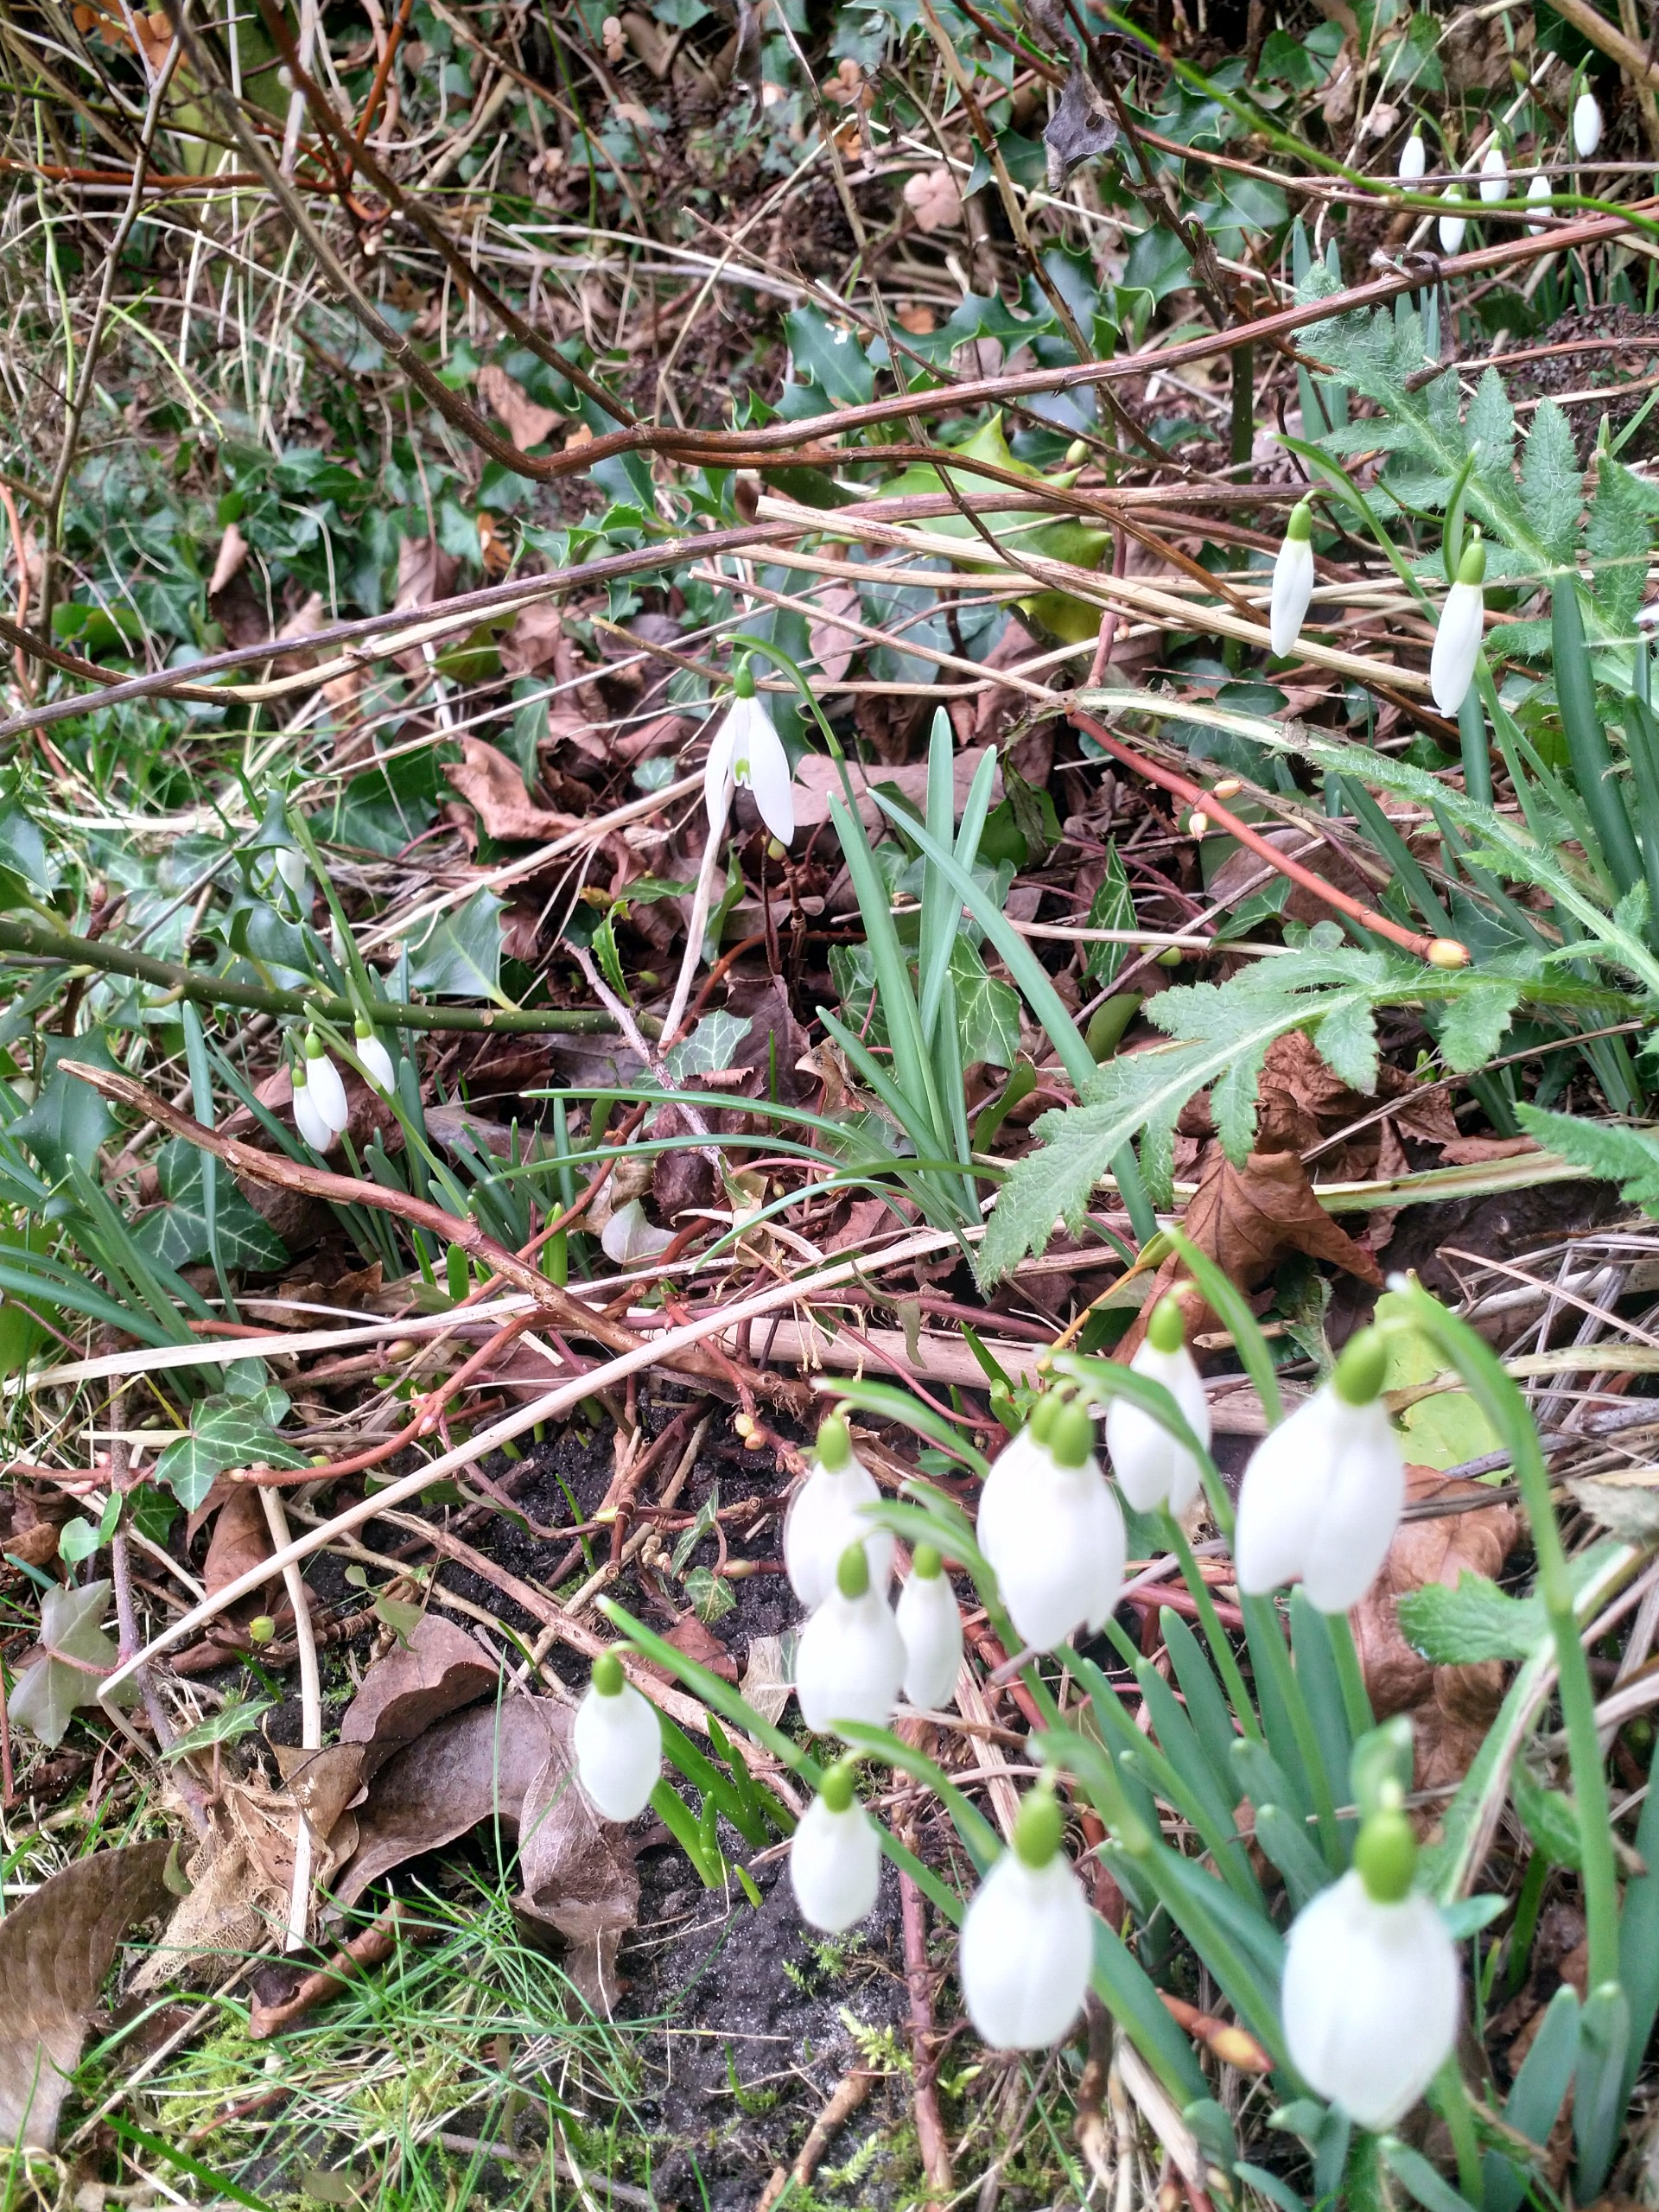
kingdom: Plantae
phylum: Tracheophyta
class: Liliopsida
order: Asparagales
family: Amaryllidaceae
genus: Galanthus
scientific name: Galanthus nivalis
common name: Vintergæk
